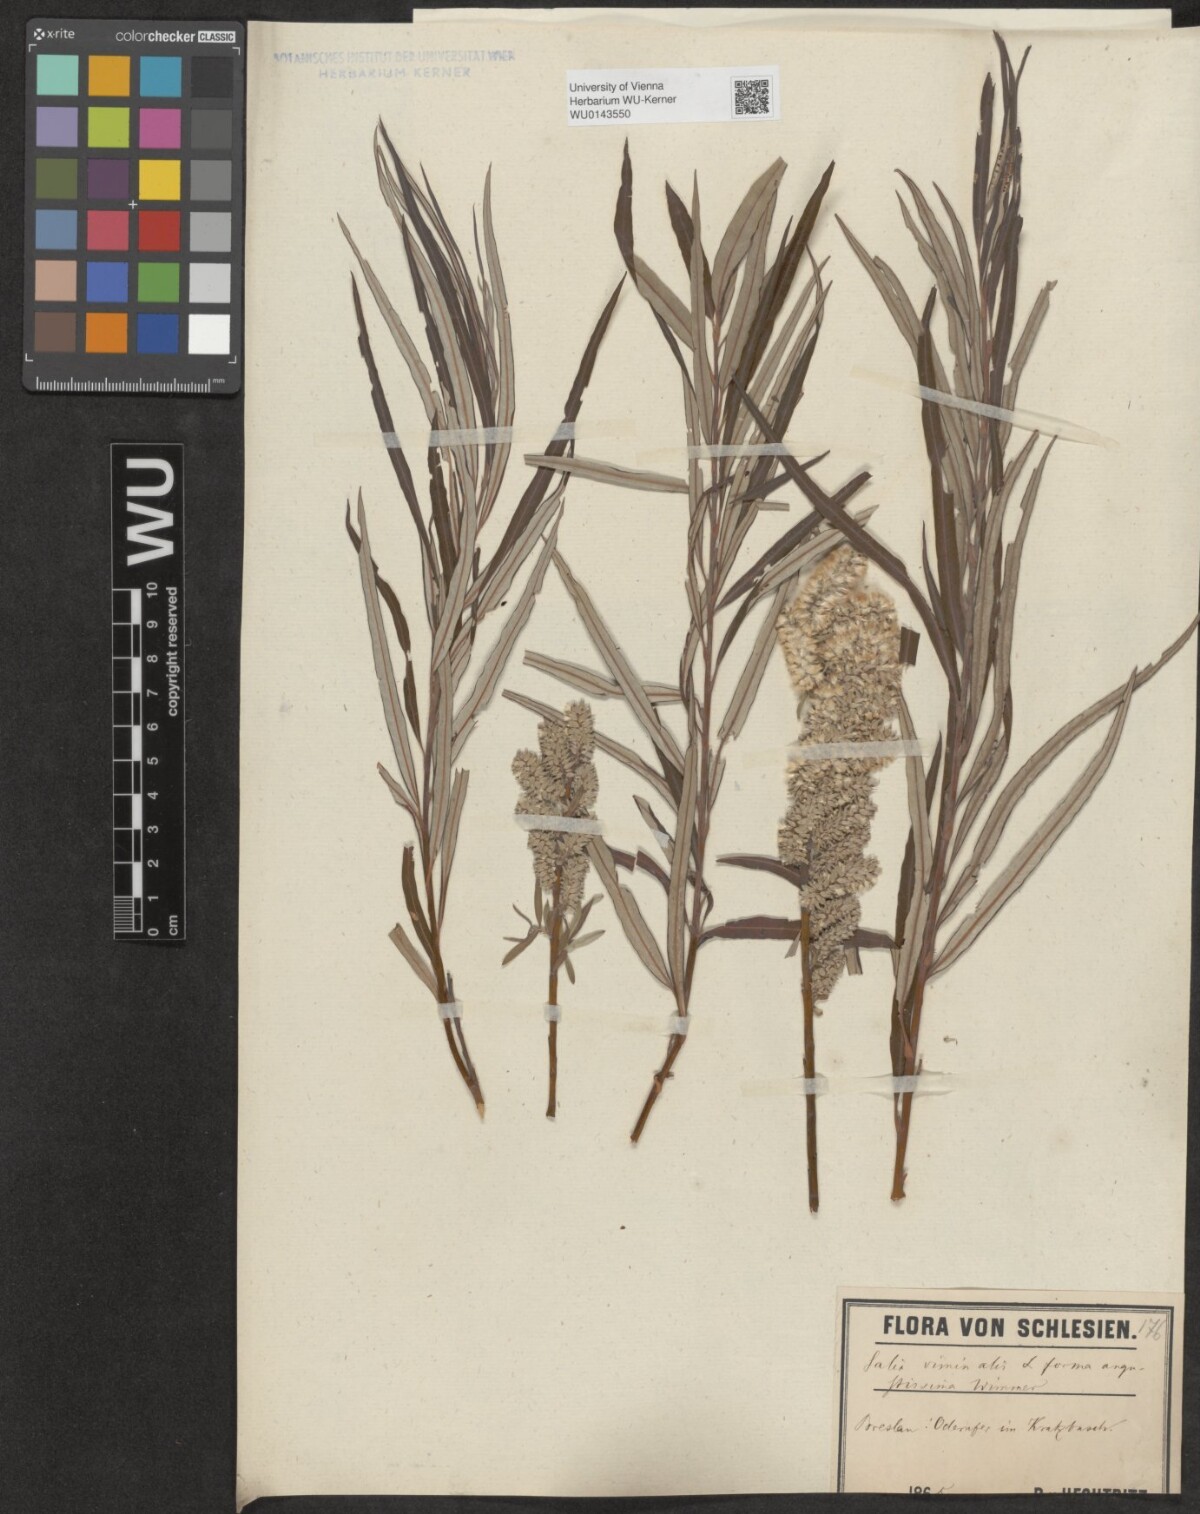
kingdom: Plantae
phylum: Tracheophyta
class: Magnoliopsida
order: Malpighiales
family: Salicaceae
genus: Salix
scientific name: Salix viminalis
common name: Osier
